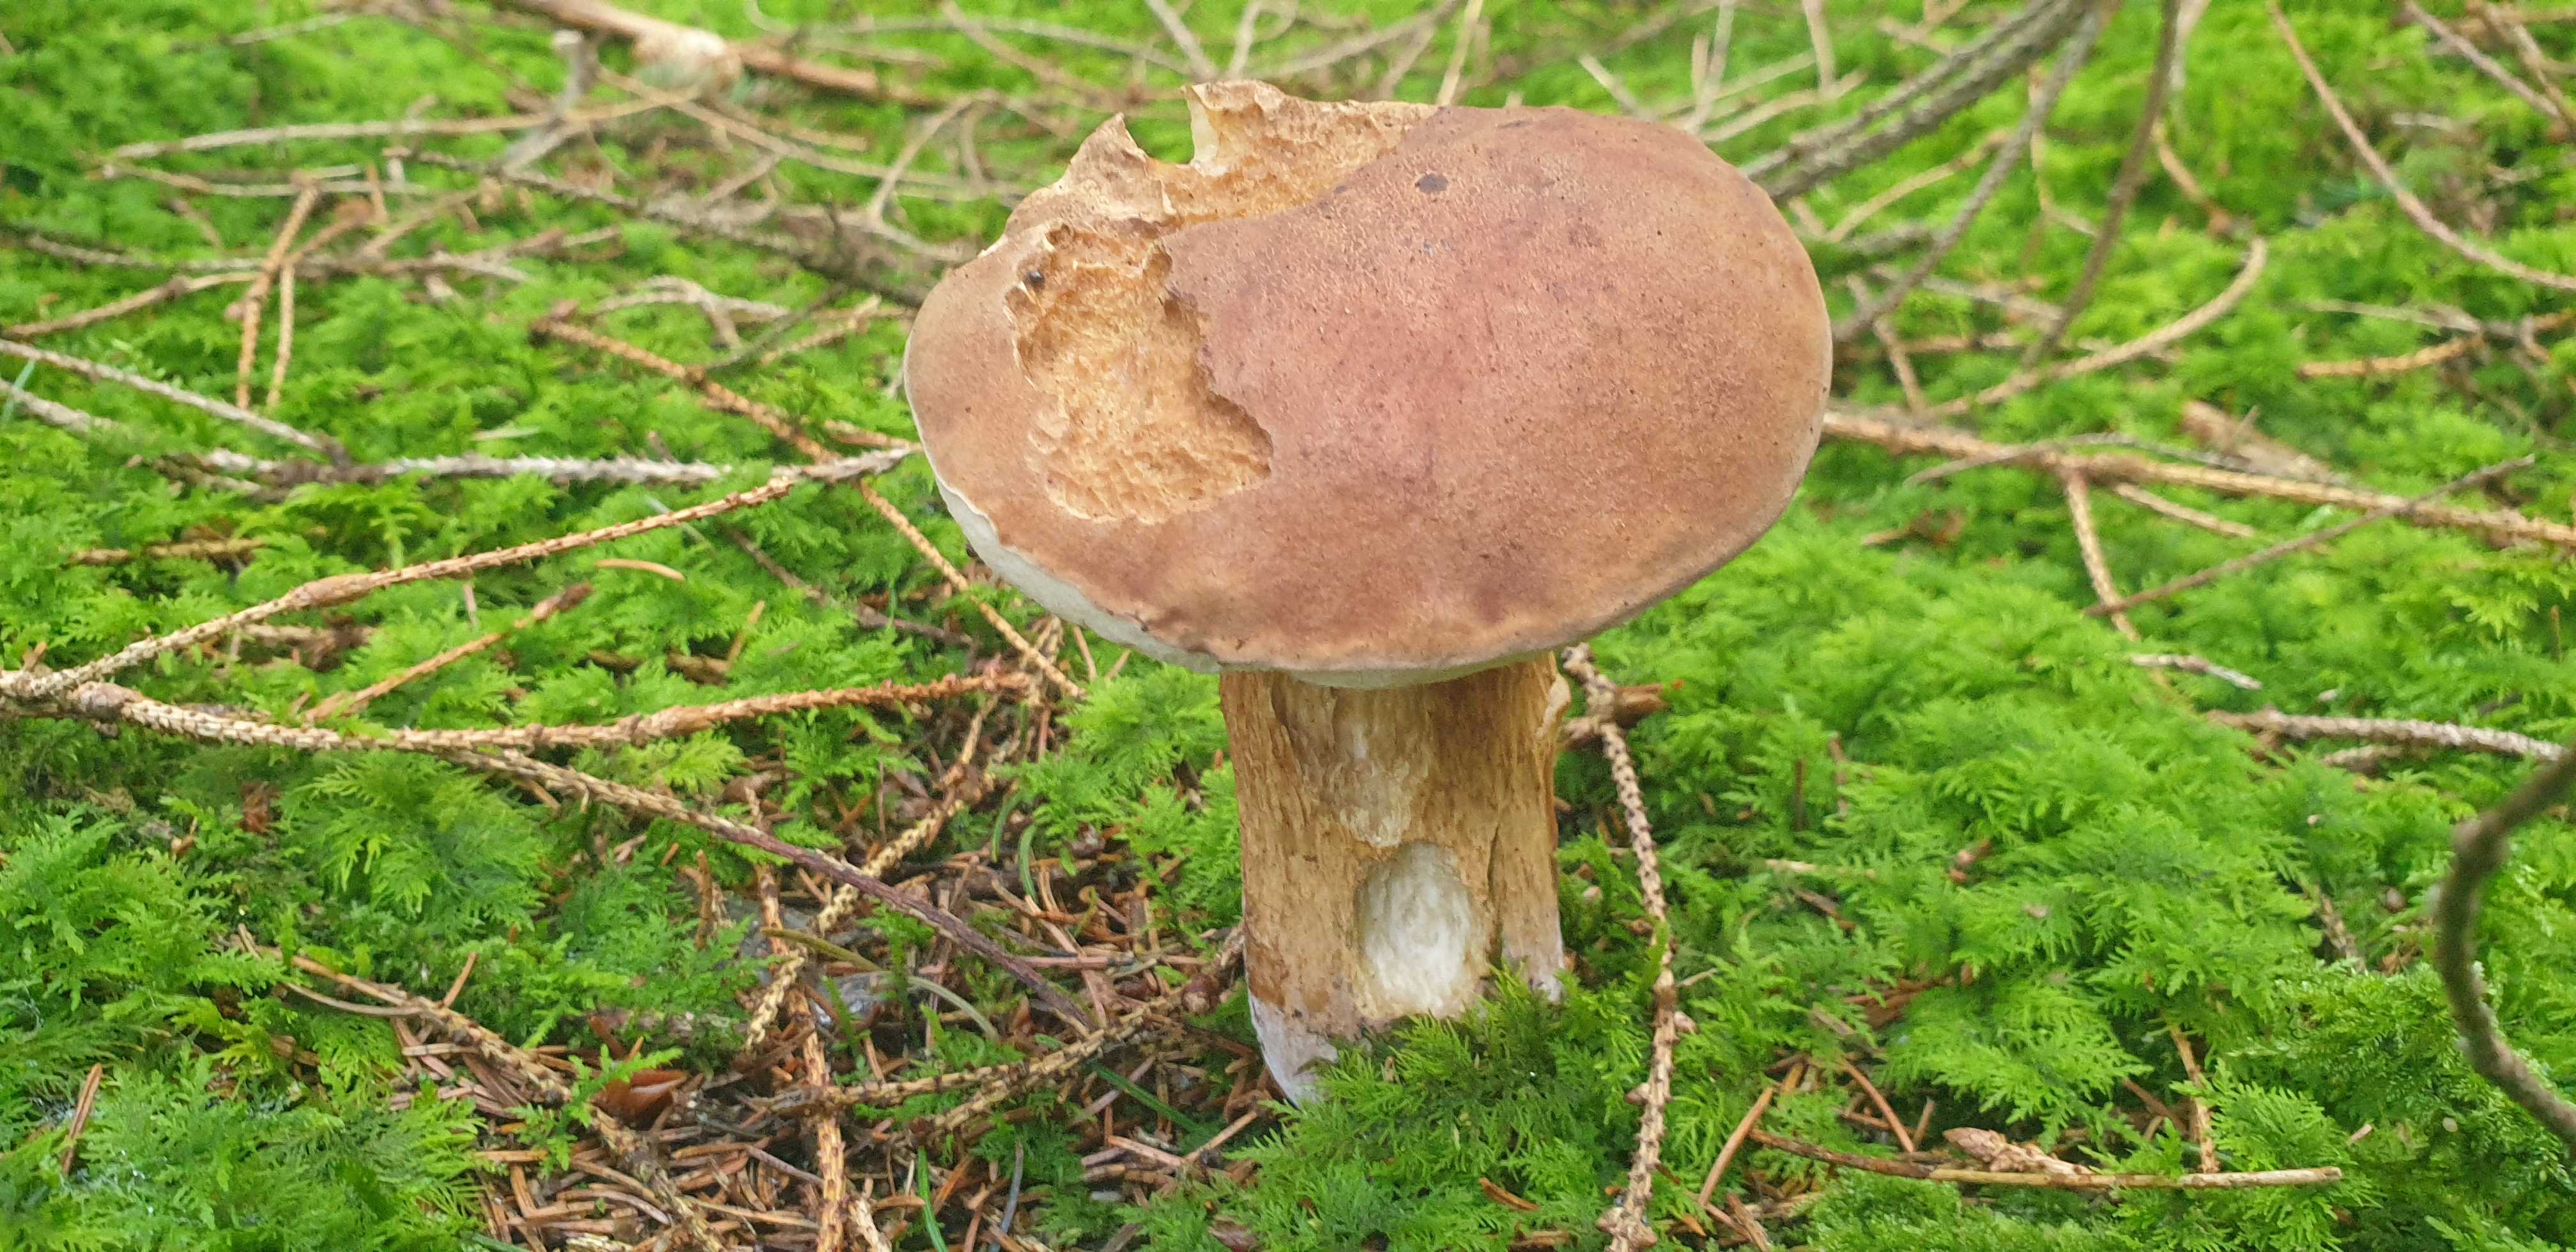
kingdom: Fungi
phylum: Basidiomycota
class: Agaricomycetes
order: Boletales
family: Boletaceae
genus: Tylopilus
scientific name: Tylopilus felleus
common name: galderørhat
